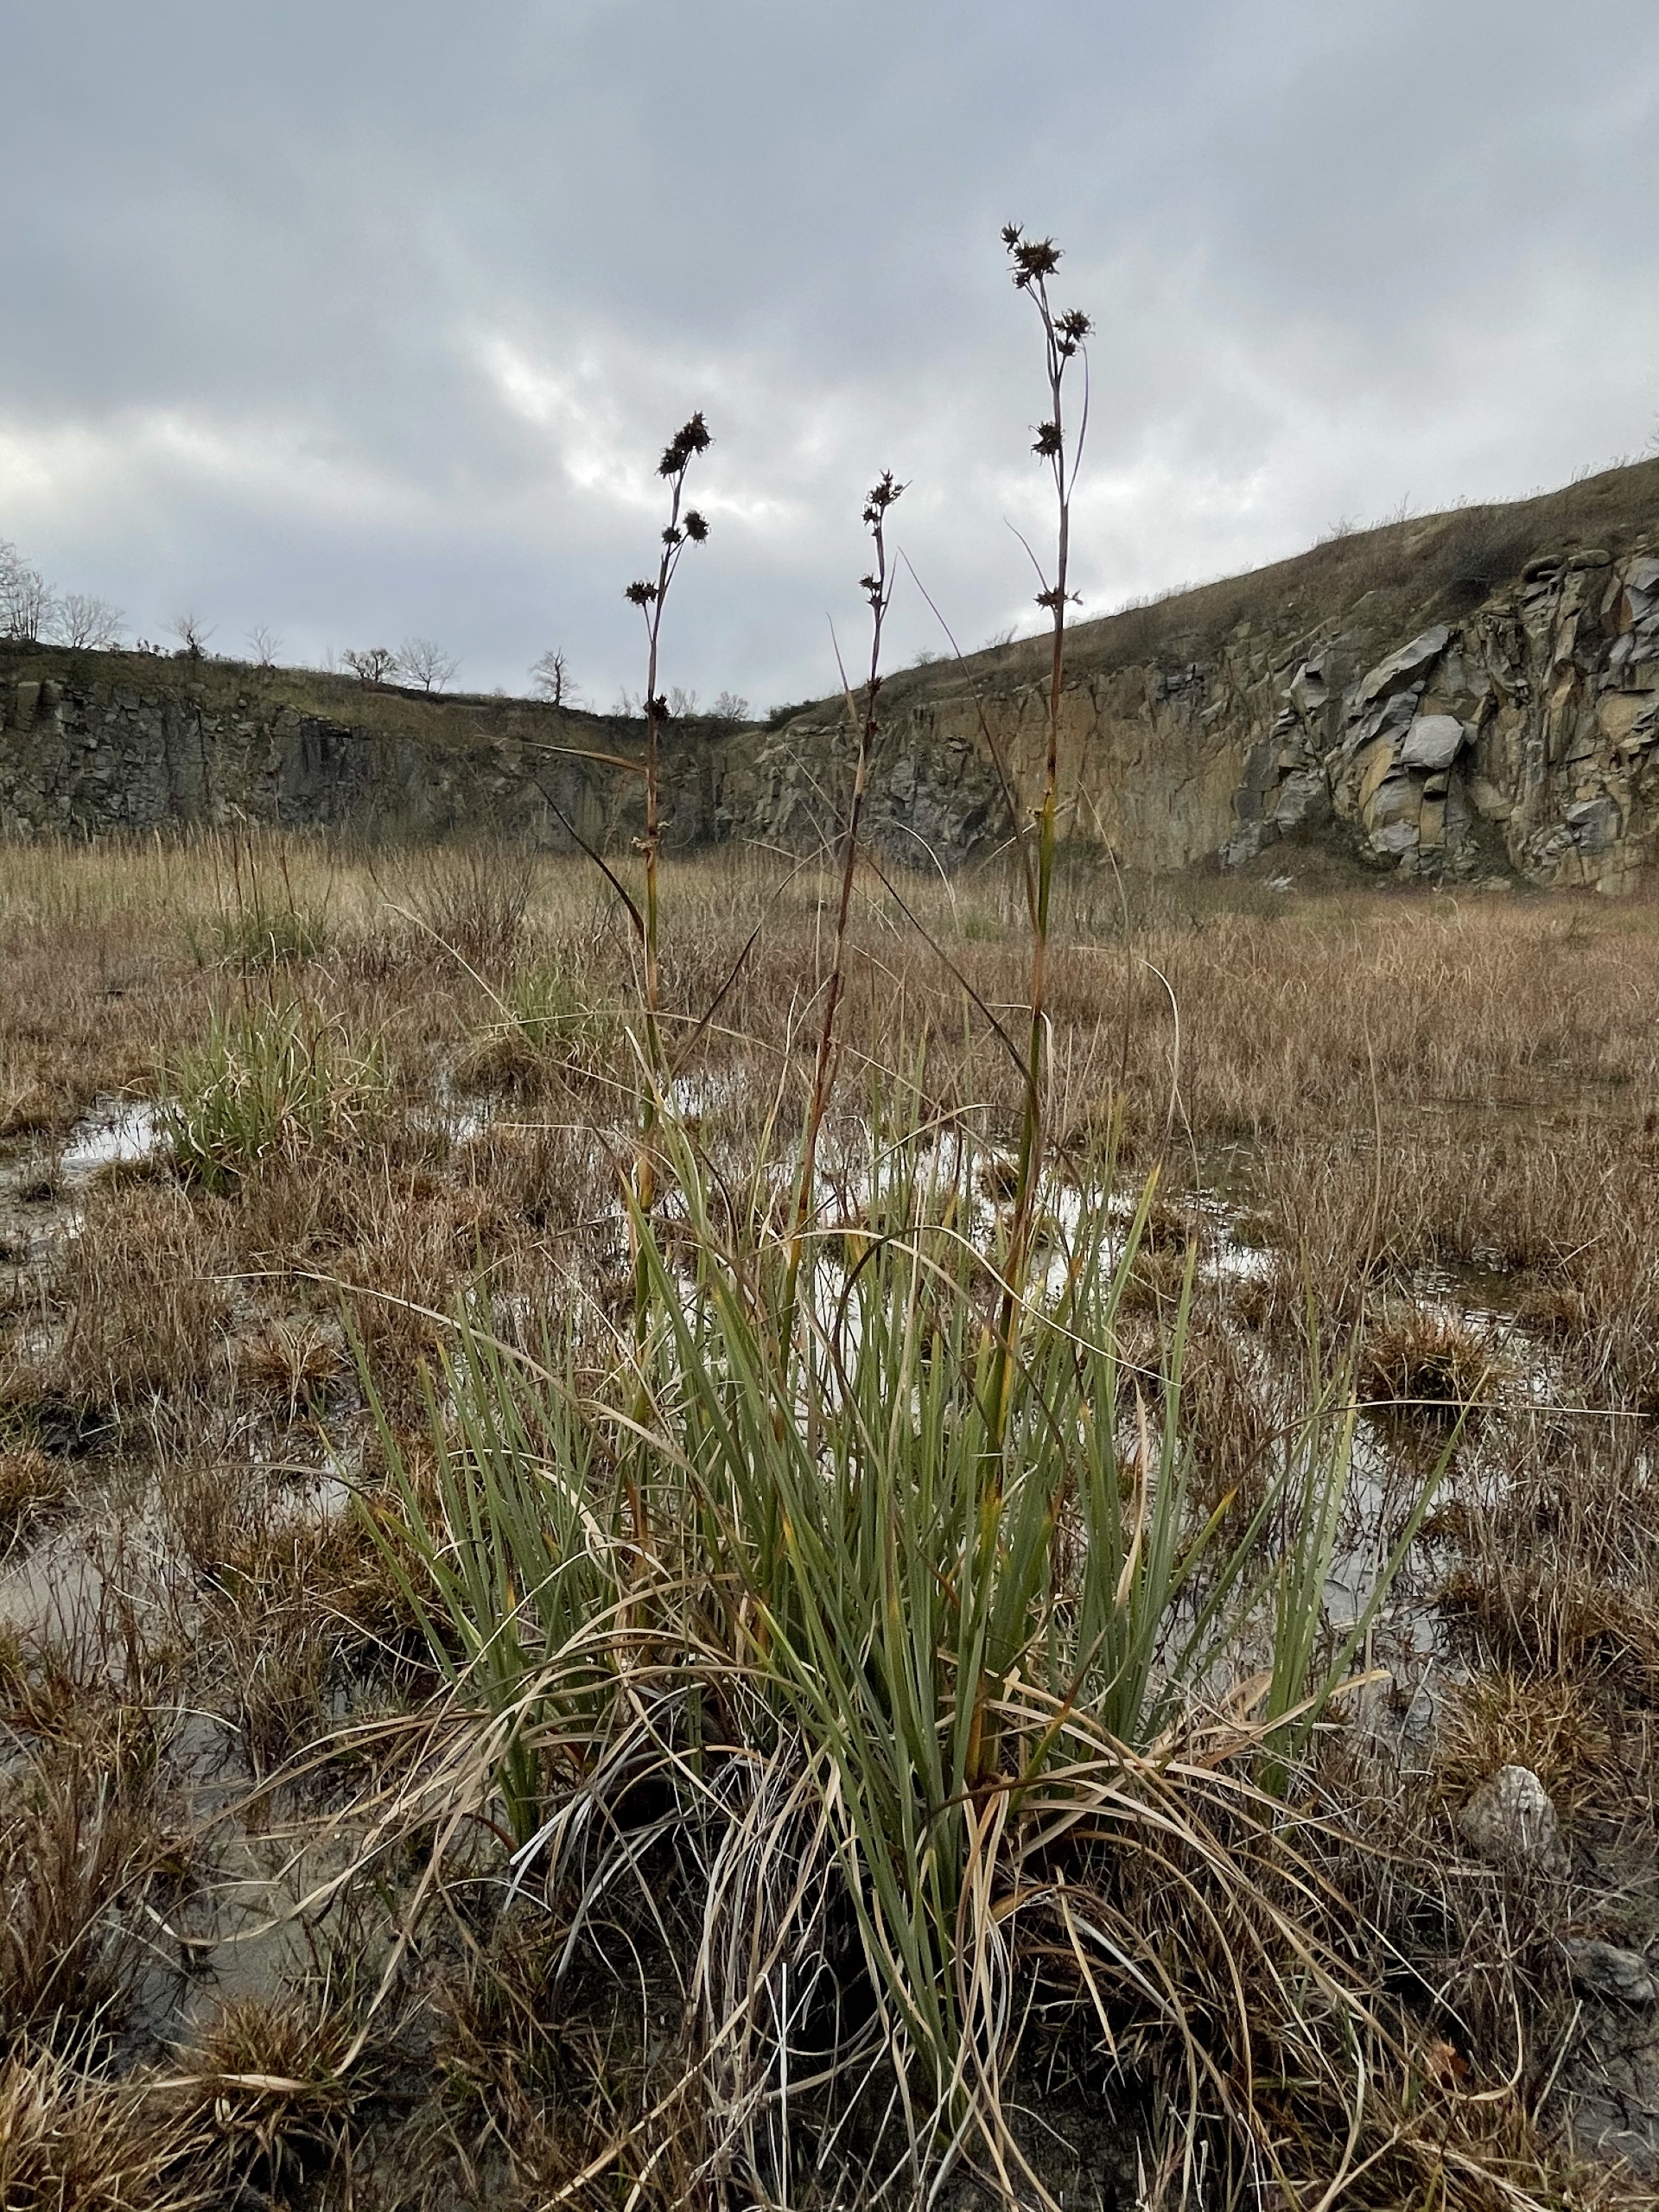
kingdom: Plantae
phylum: Tracheophyta
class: Liliopsida
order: Poales
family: Cyperaceae
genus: Cladium
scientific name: Cladium mariscus
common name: Hvas avneknippe
